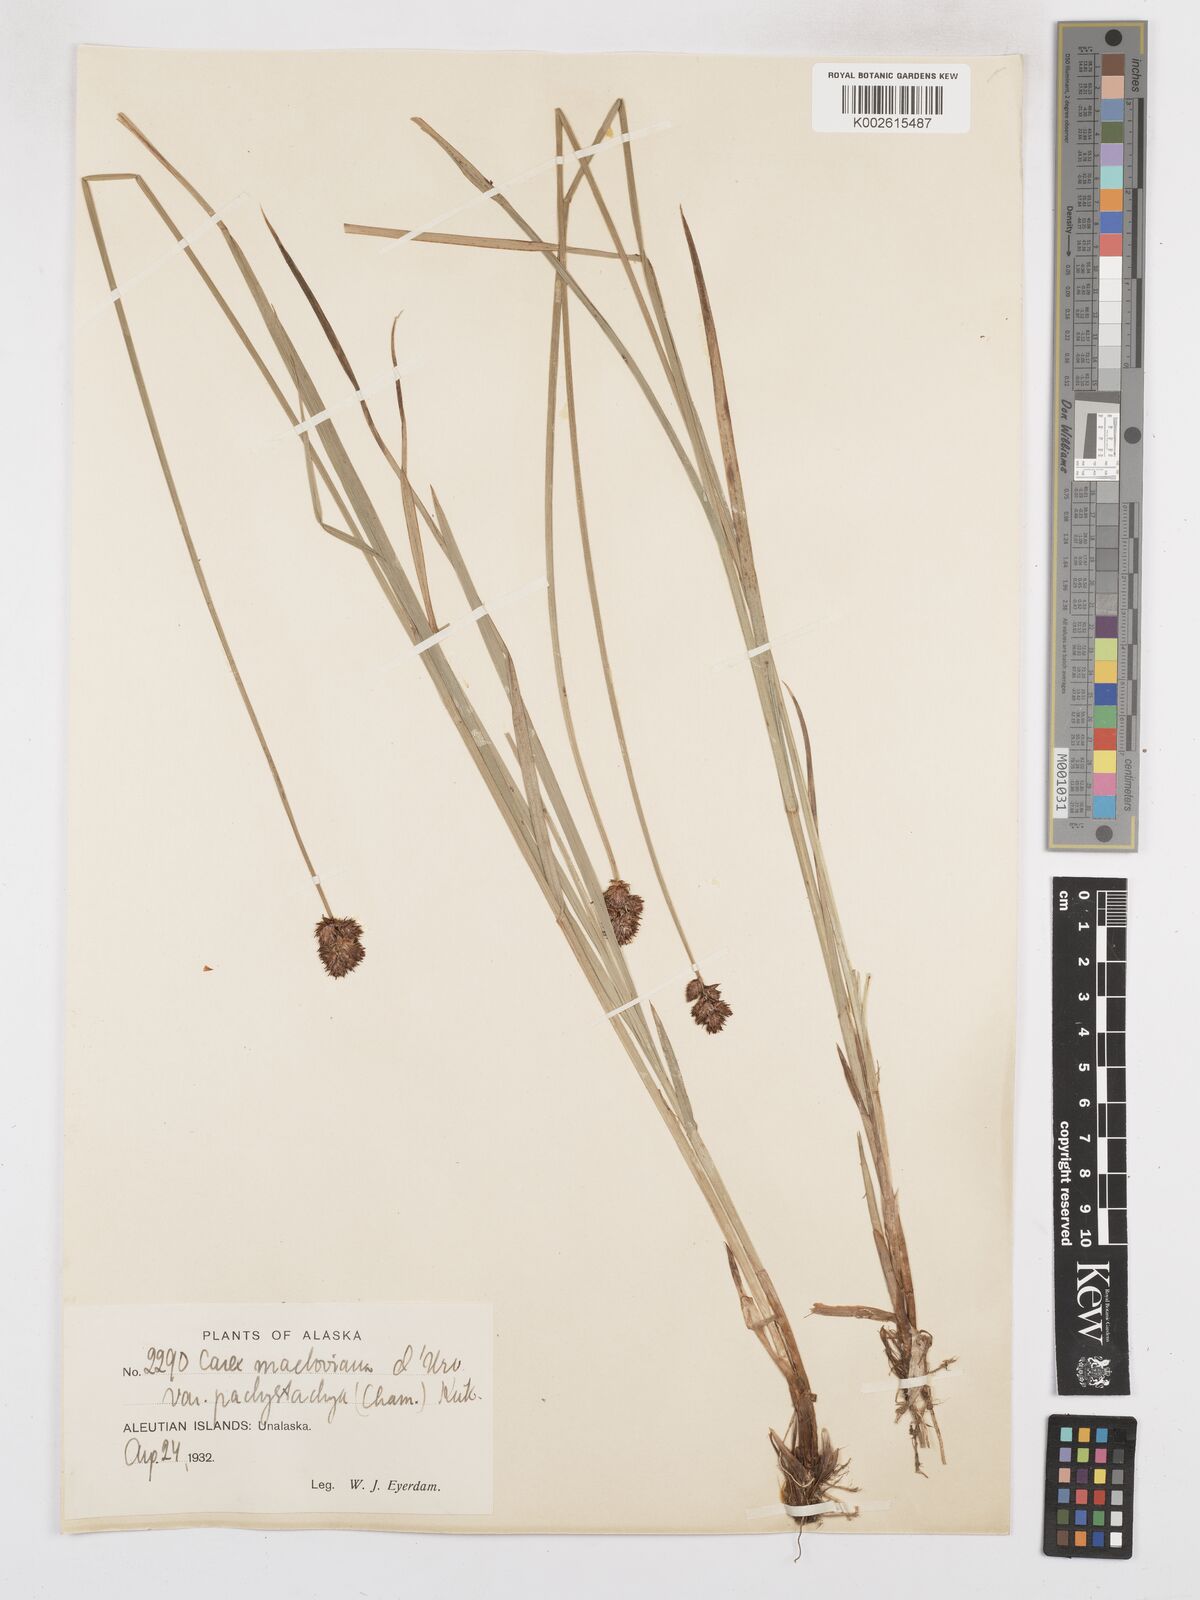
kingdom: Plantae
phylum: Tracheophyta
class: Liliopsida
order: Poales
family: Cyperaceae
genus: Carex
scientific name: Carex macloviana
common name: Falkland island sedge
